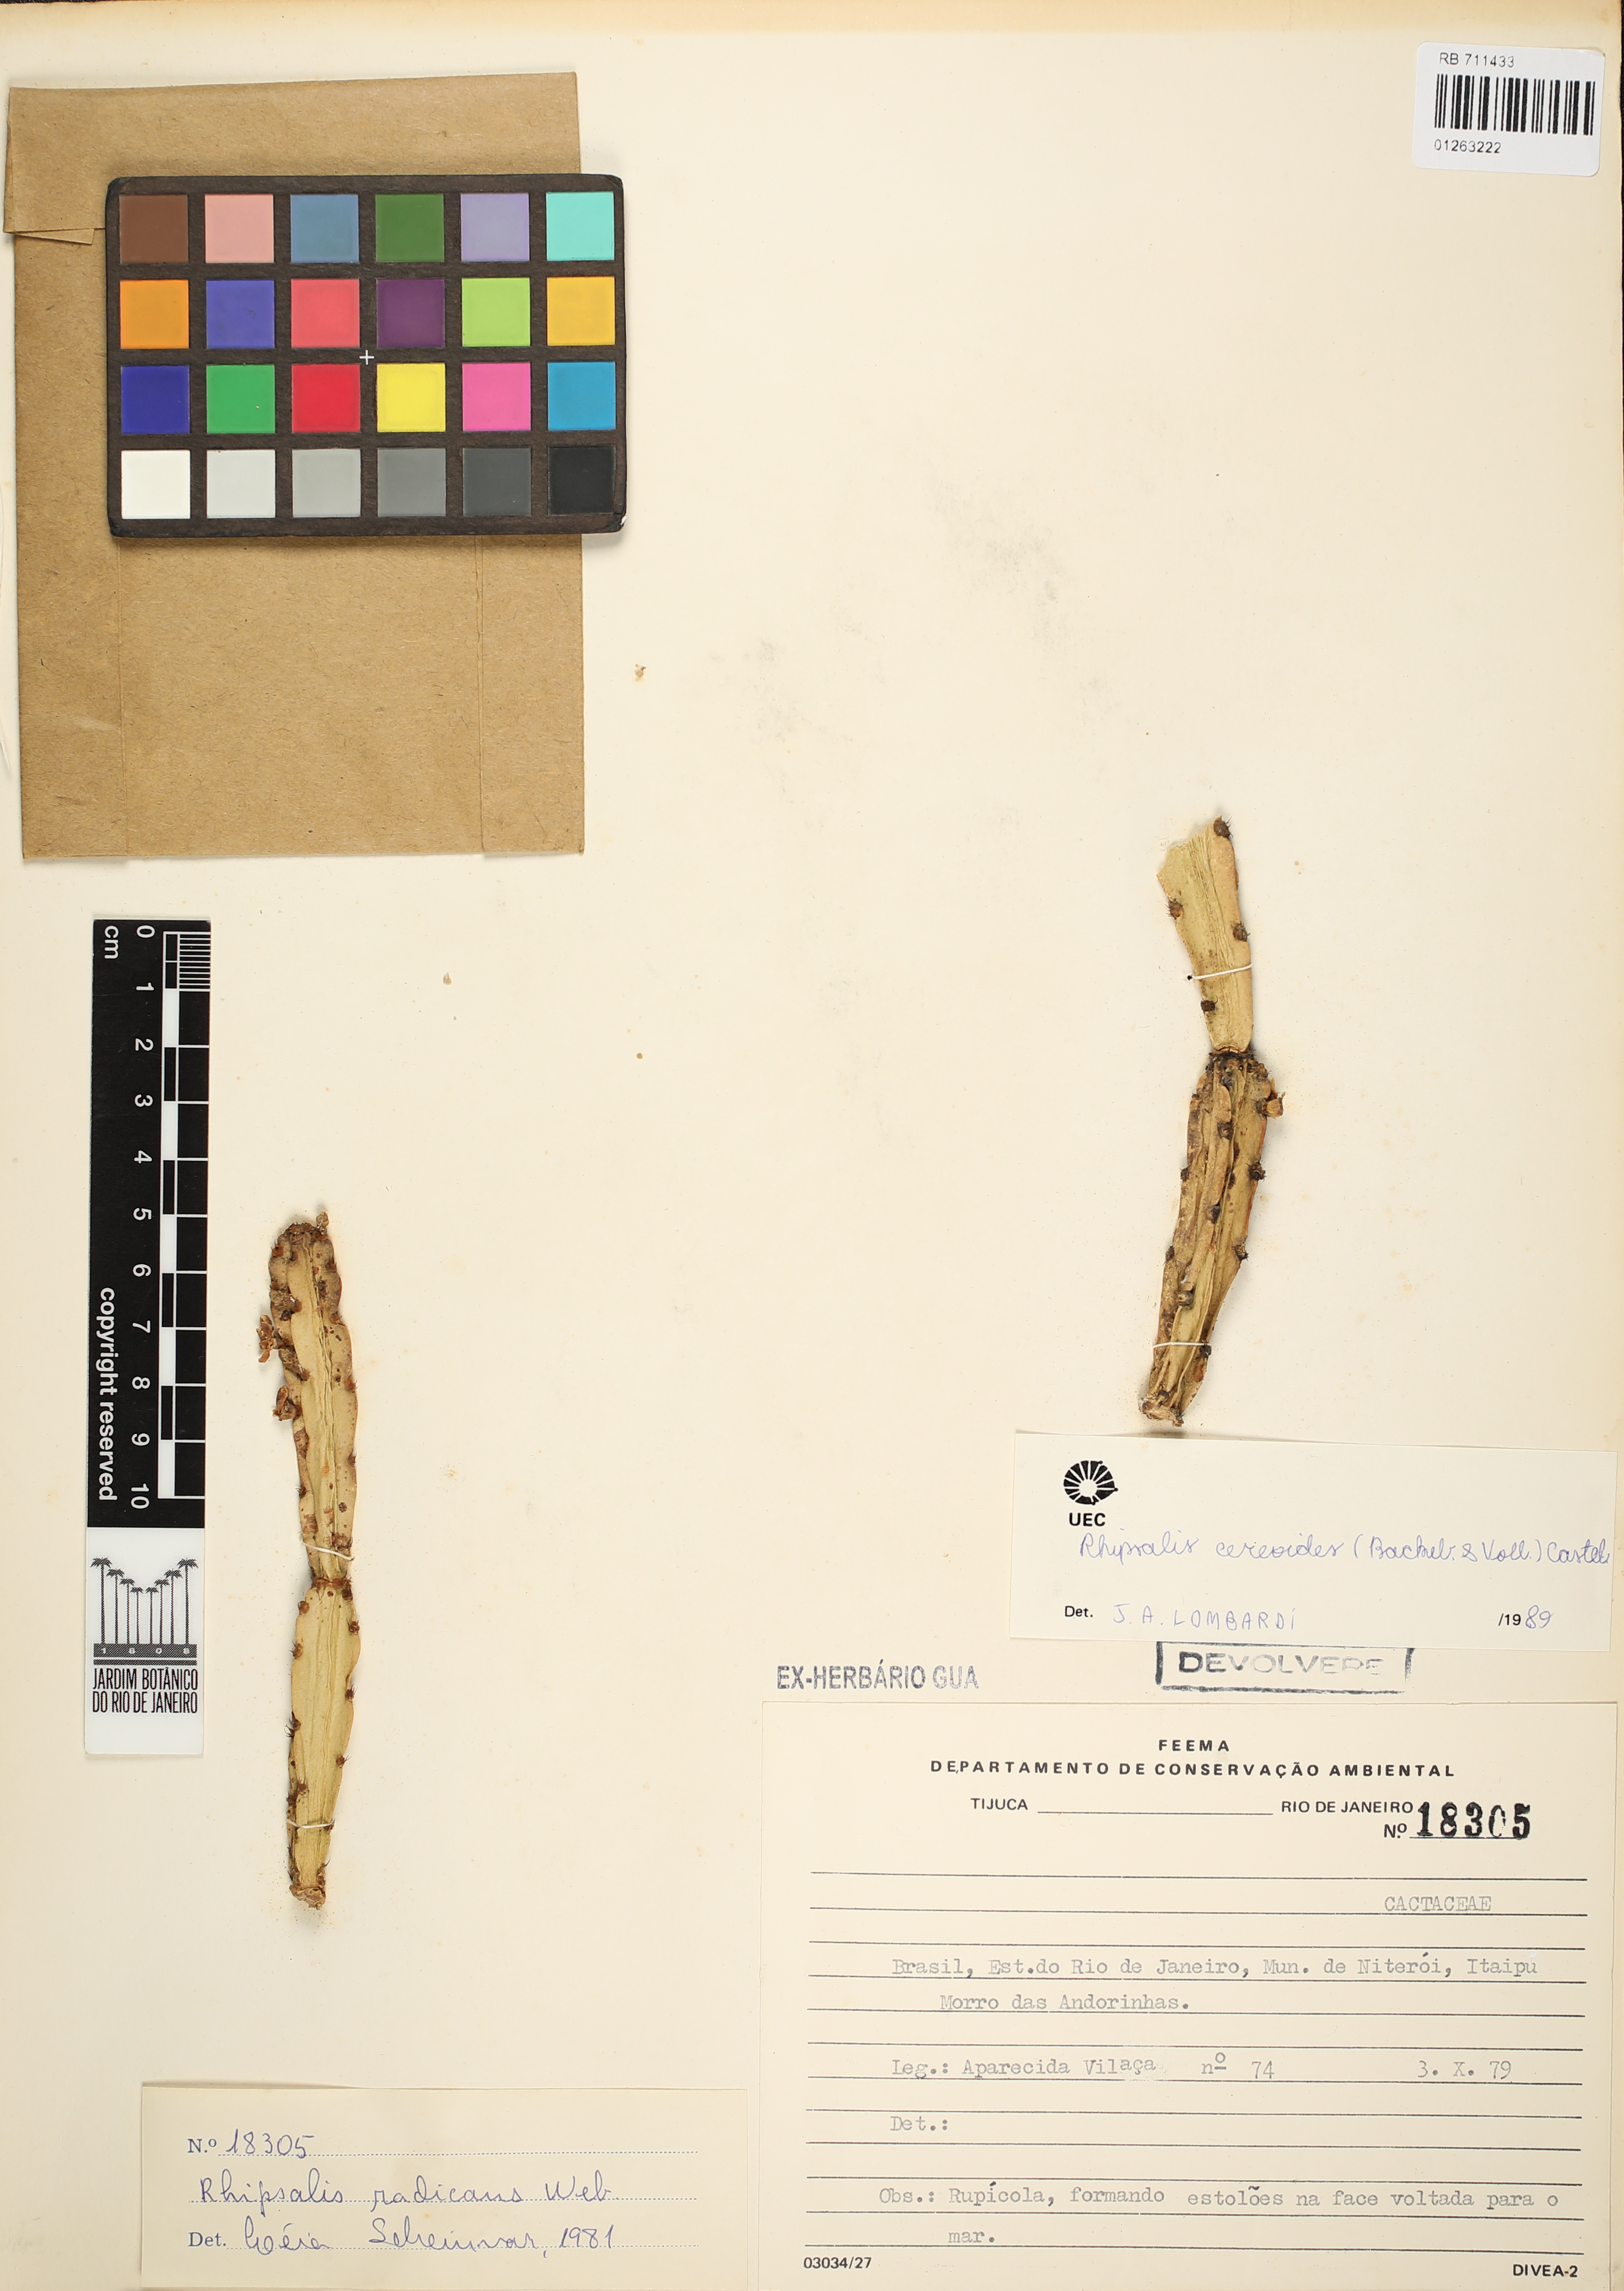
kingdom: Plantae
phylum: Tracheophyta
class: Magnoliopsida
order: Caryophyllales
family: Cactaceae
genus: Rhipsalis
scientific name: Rhipsalis cereoides
